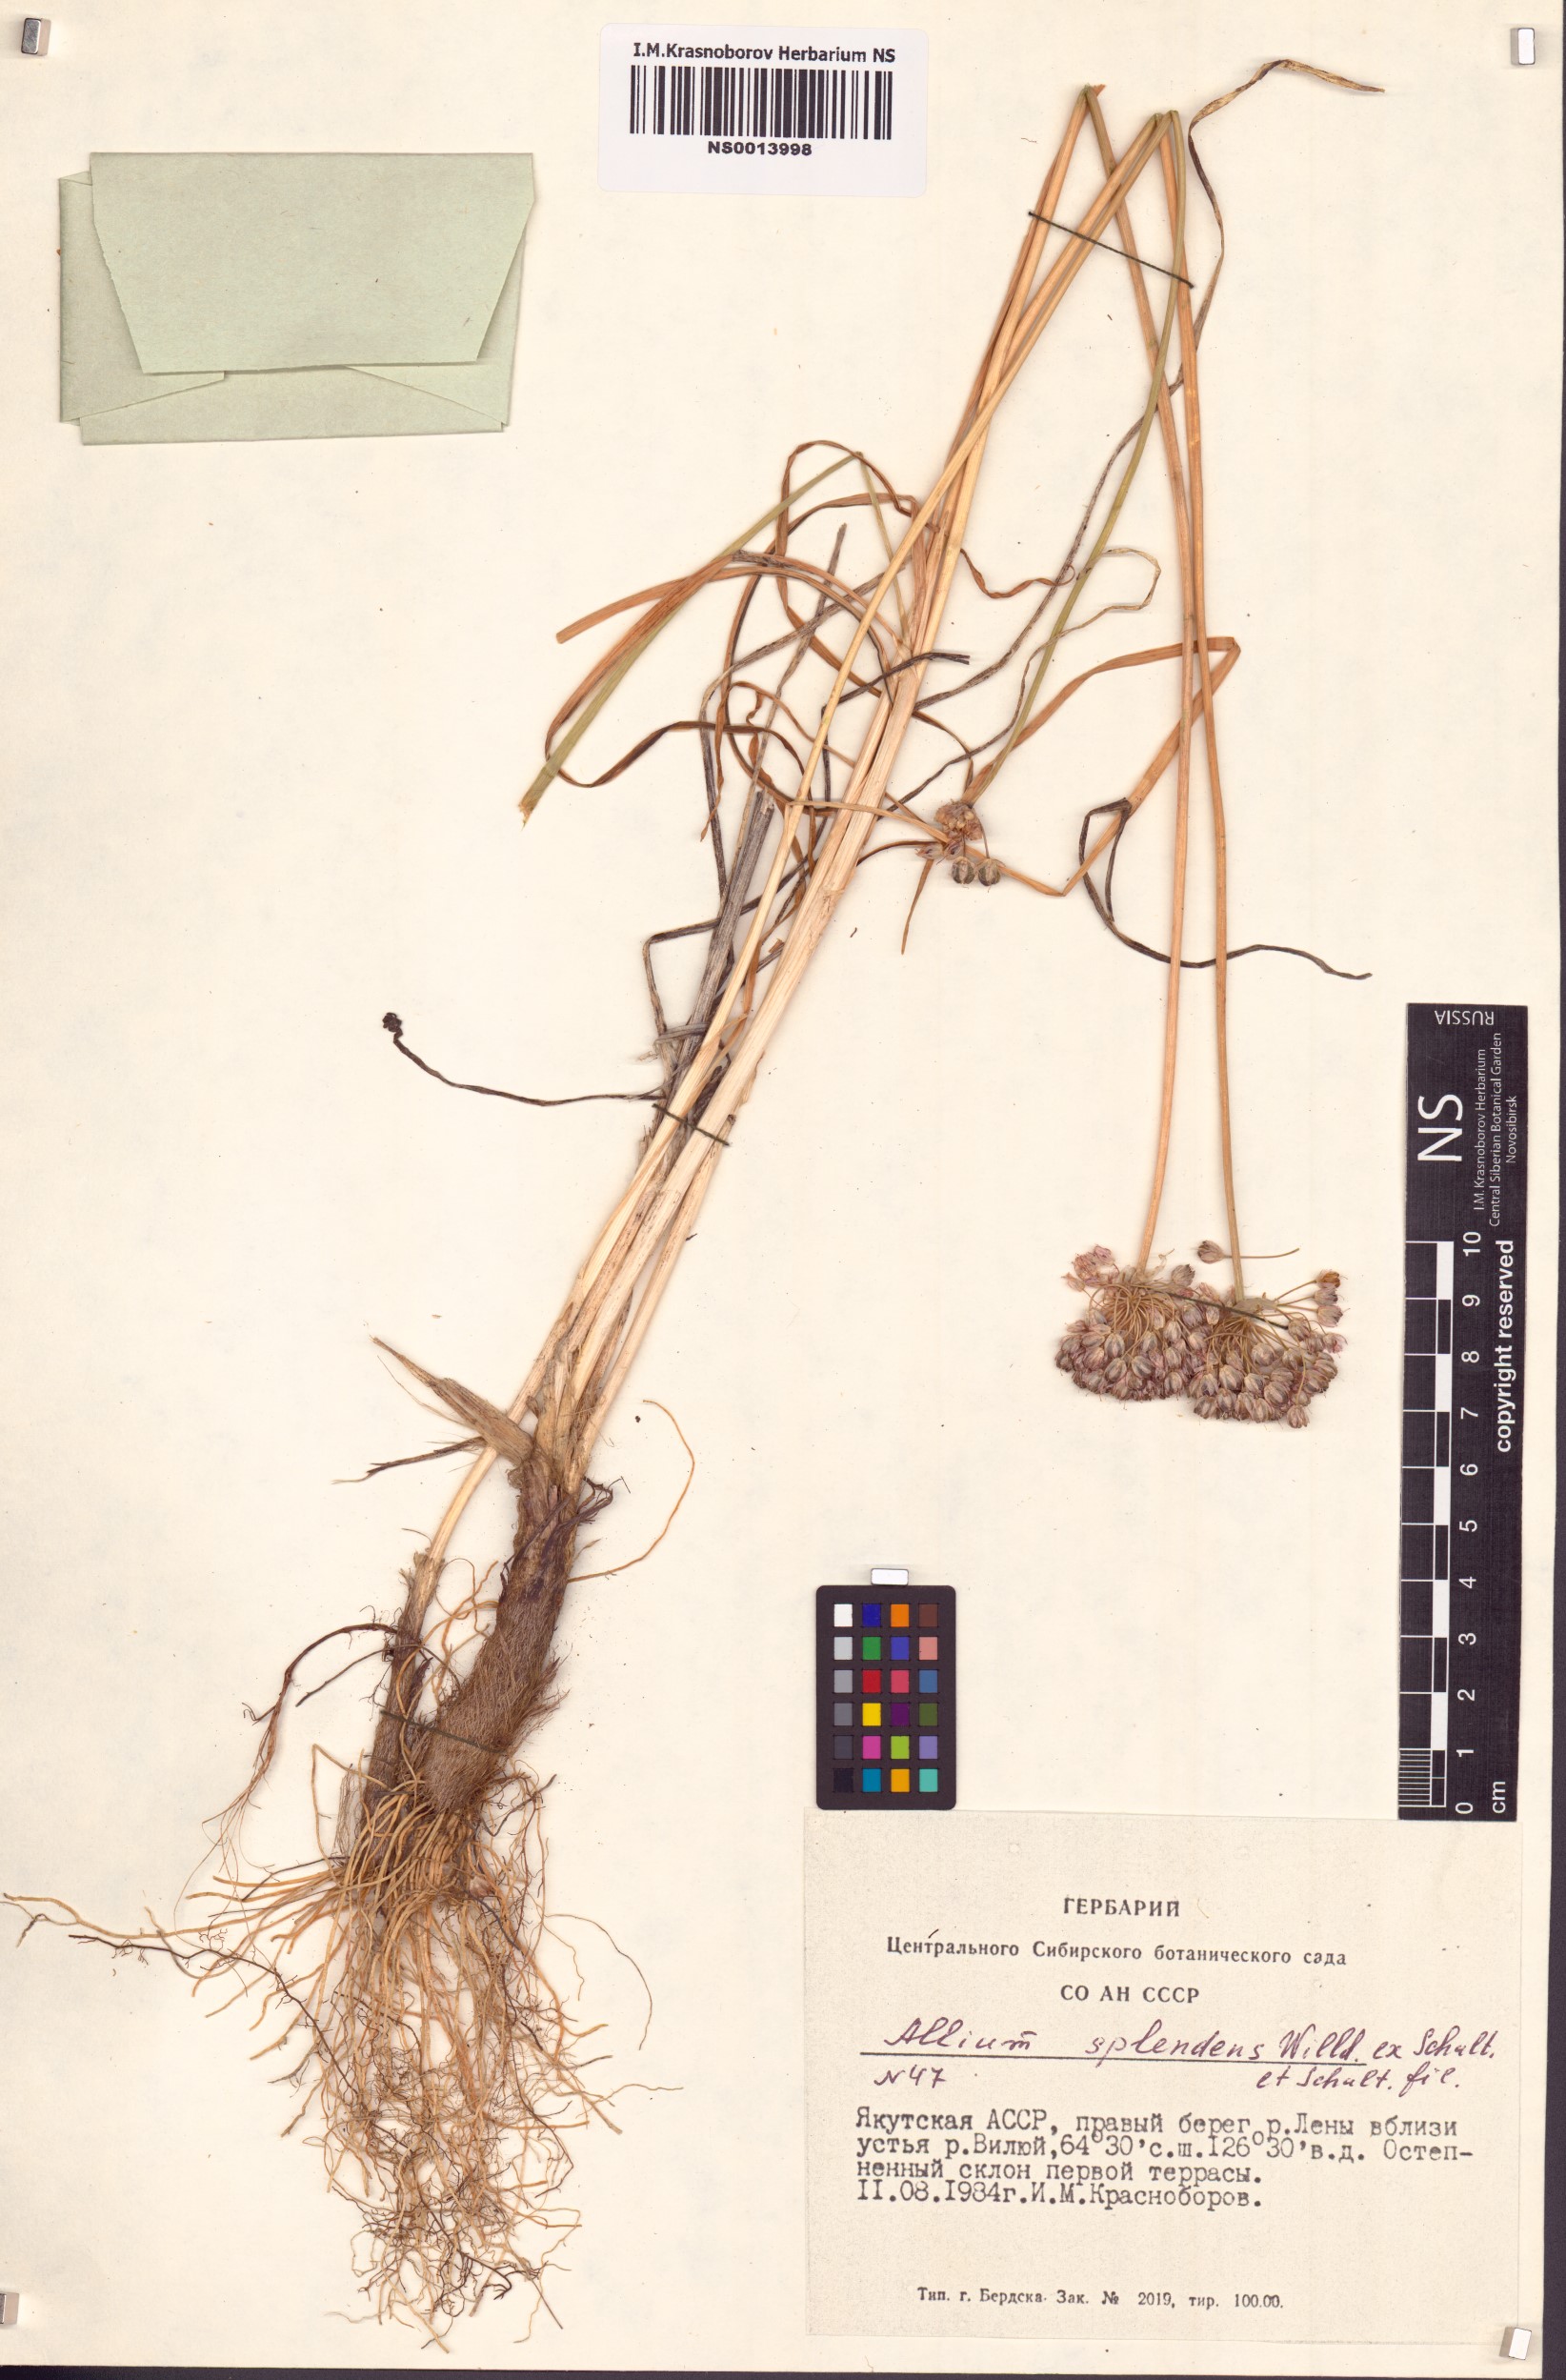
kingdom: Plantae
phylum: Tracheophyta
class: Liliopsida
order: Asparagales
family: Amaryllidaceae
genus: Allium
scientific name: Allium splendens
